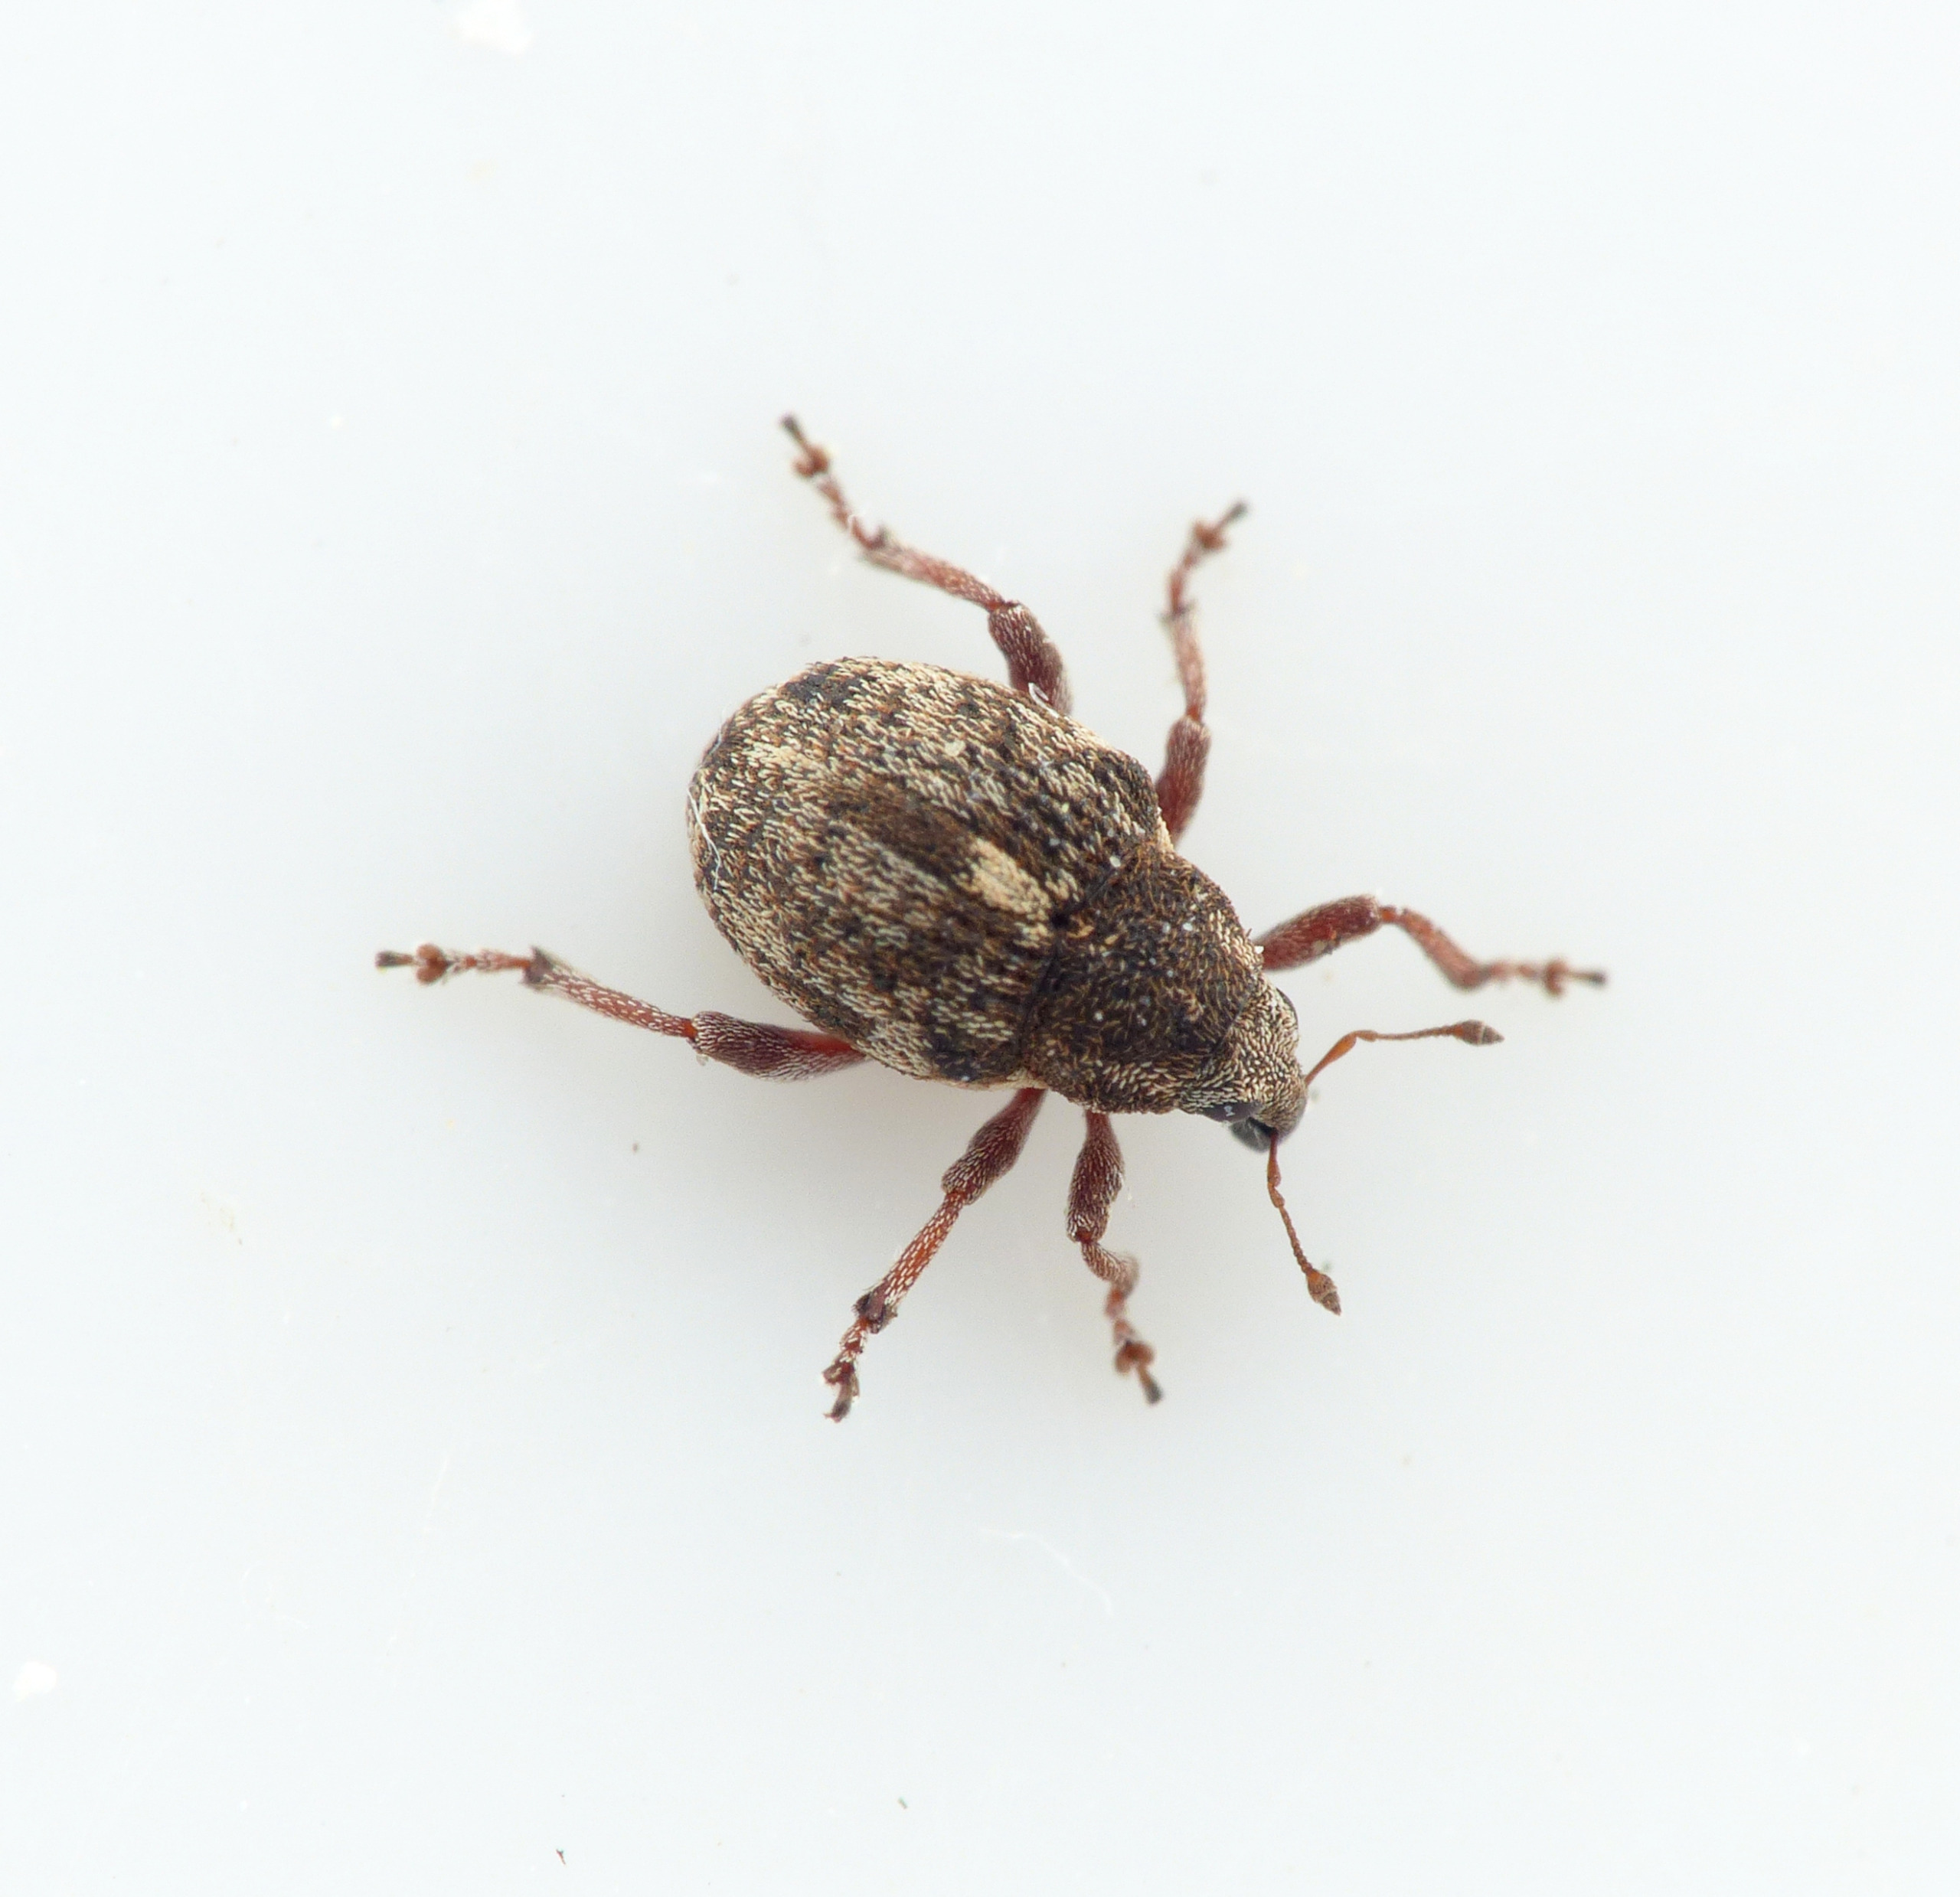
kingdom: Animalia
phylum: Arthropoda
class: Insecta
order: Coleoptera
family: Curculionidae
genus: Rhinoncus
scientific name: Rhinoncus pericarpius
